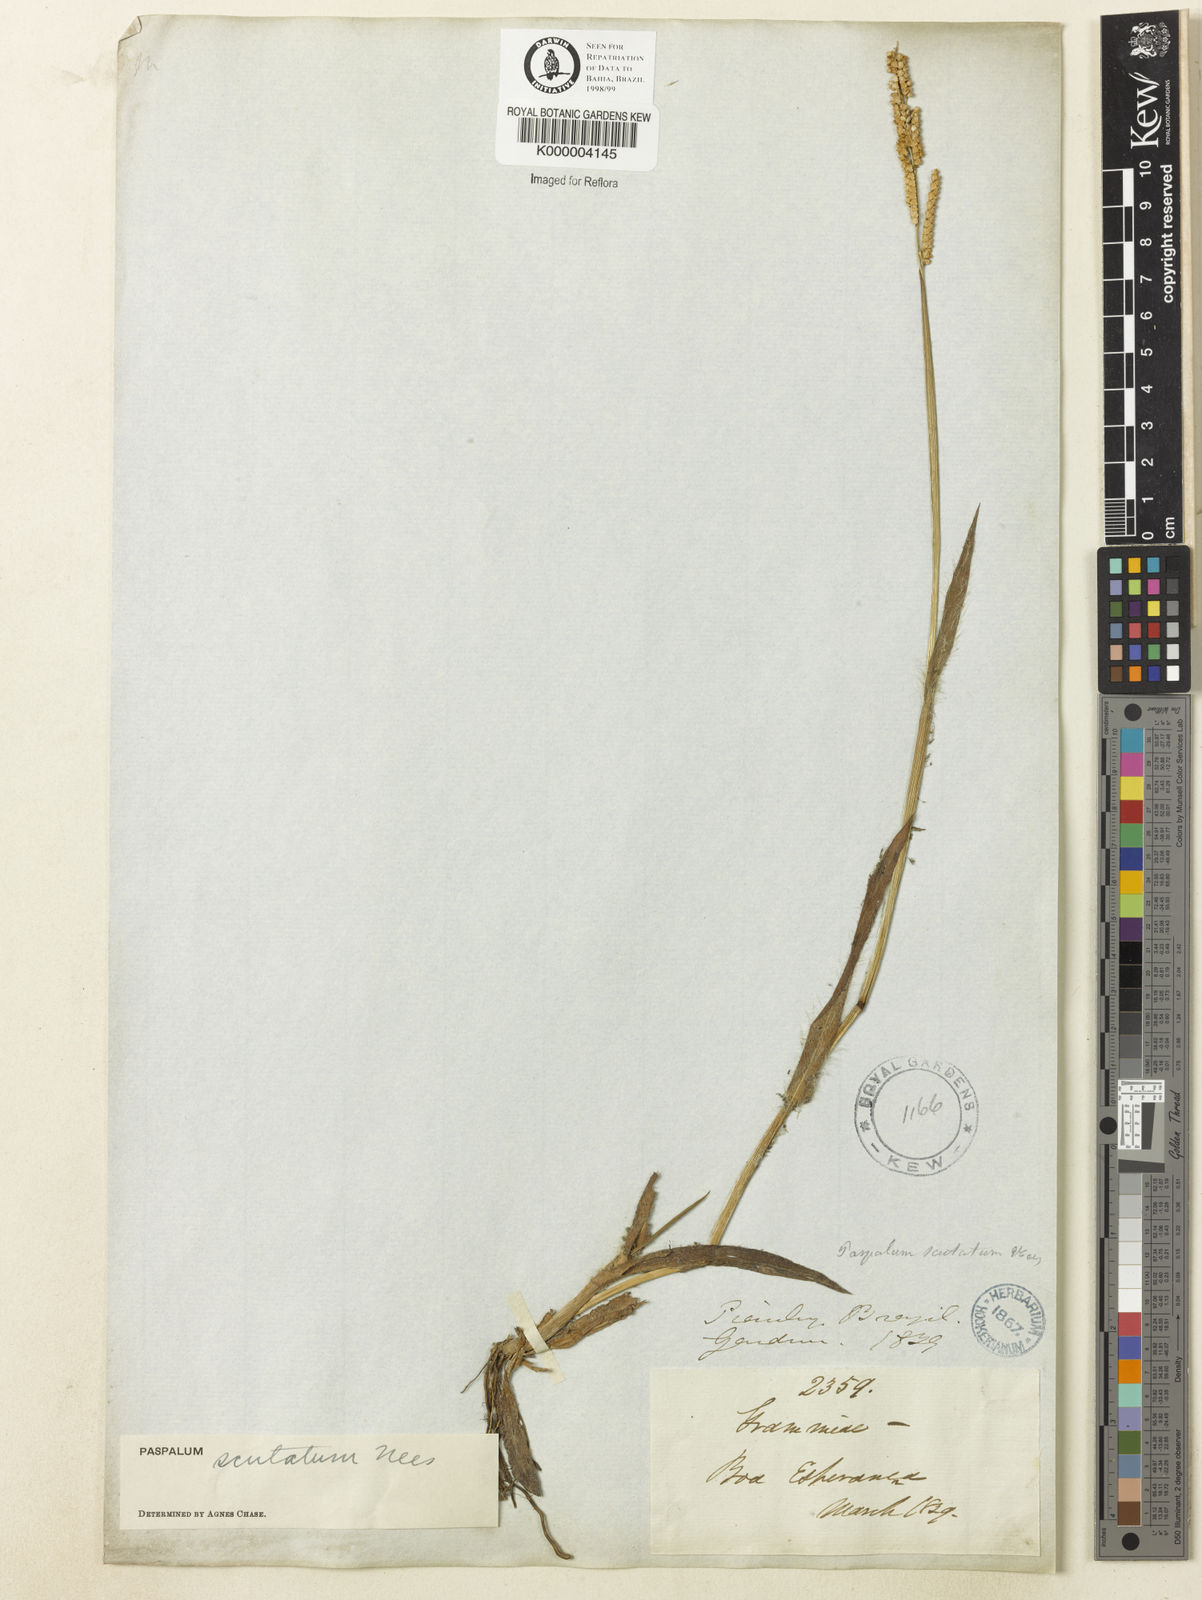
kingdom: Plantae
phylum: Tracheophyta
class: Liliopsida
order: Poales
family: Poaceae
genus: Paspalum
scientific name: Paspalum
